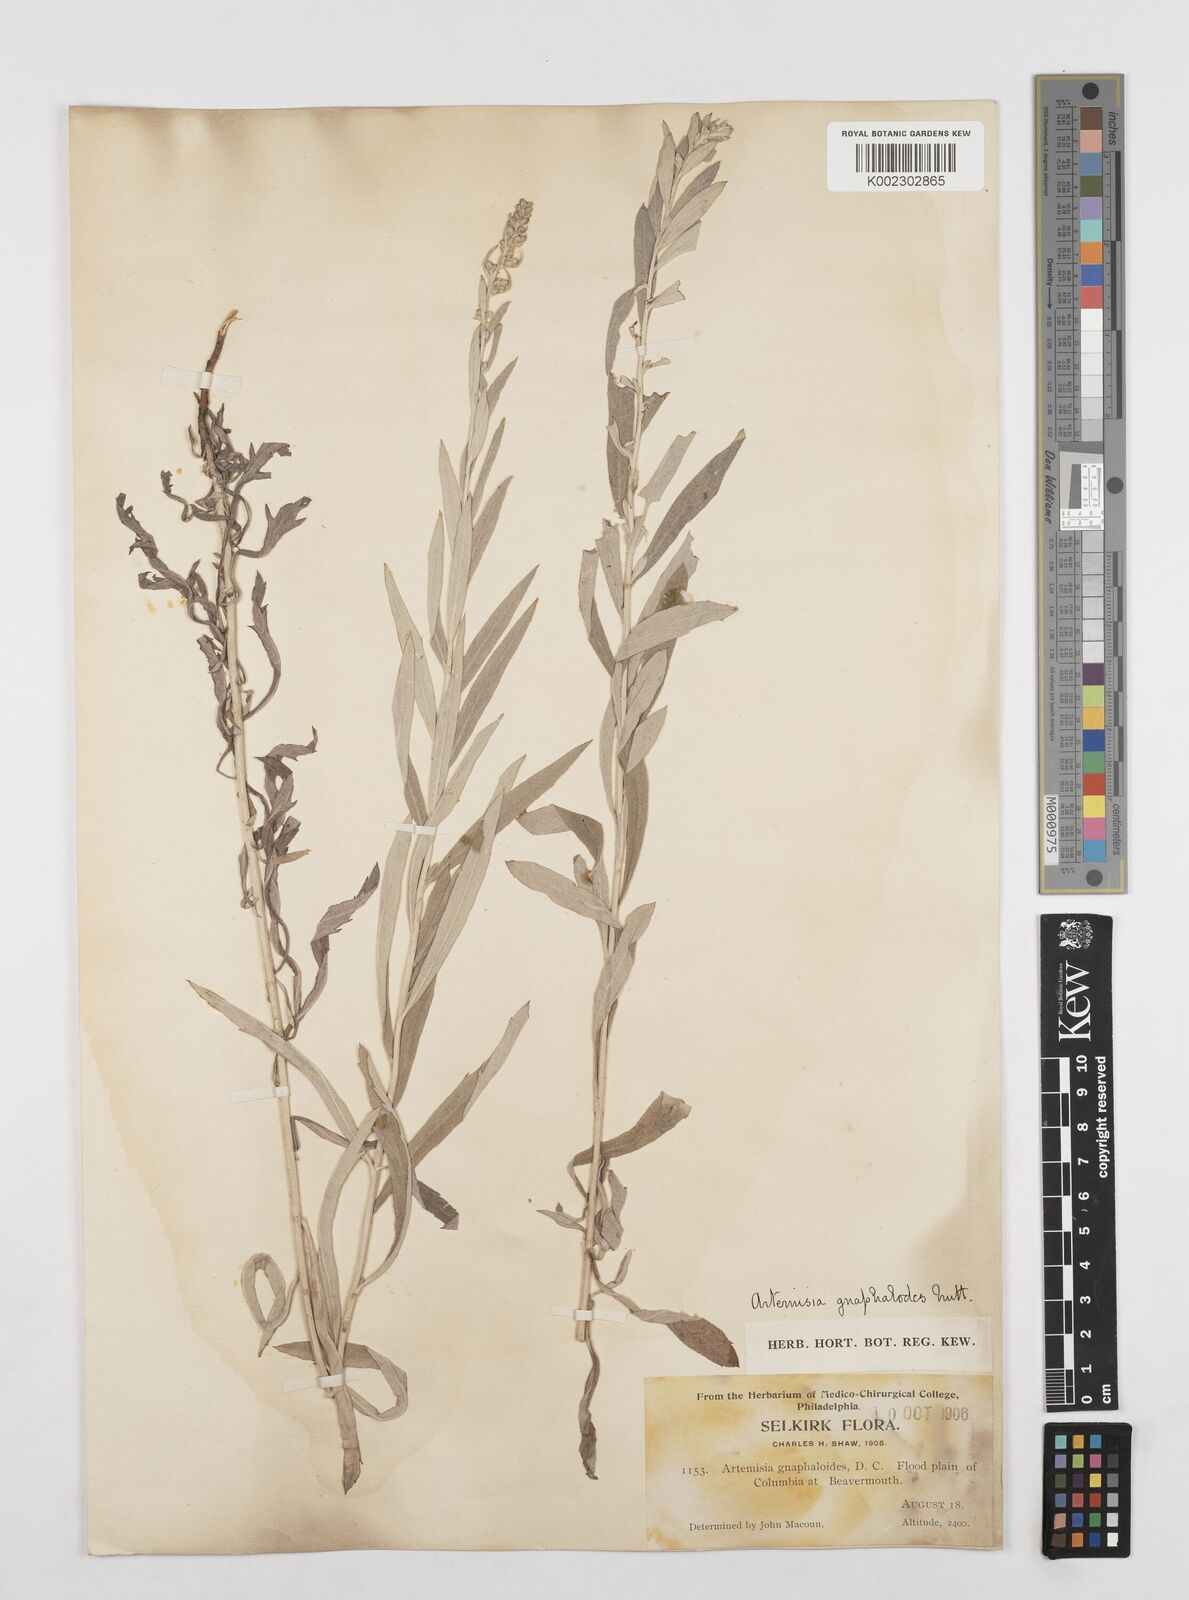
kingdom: Plantae
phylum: Tracheophyta
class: Magnoliopsida
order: Asterales
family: Asteraceae
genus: Artemisia
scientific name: Artemisia ludoviciana
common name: Western mugwort
